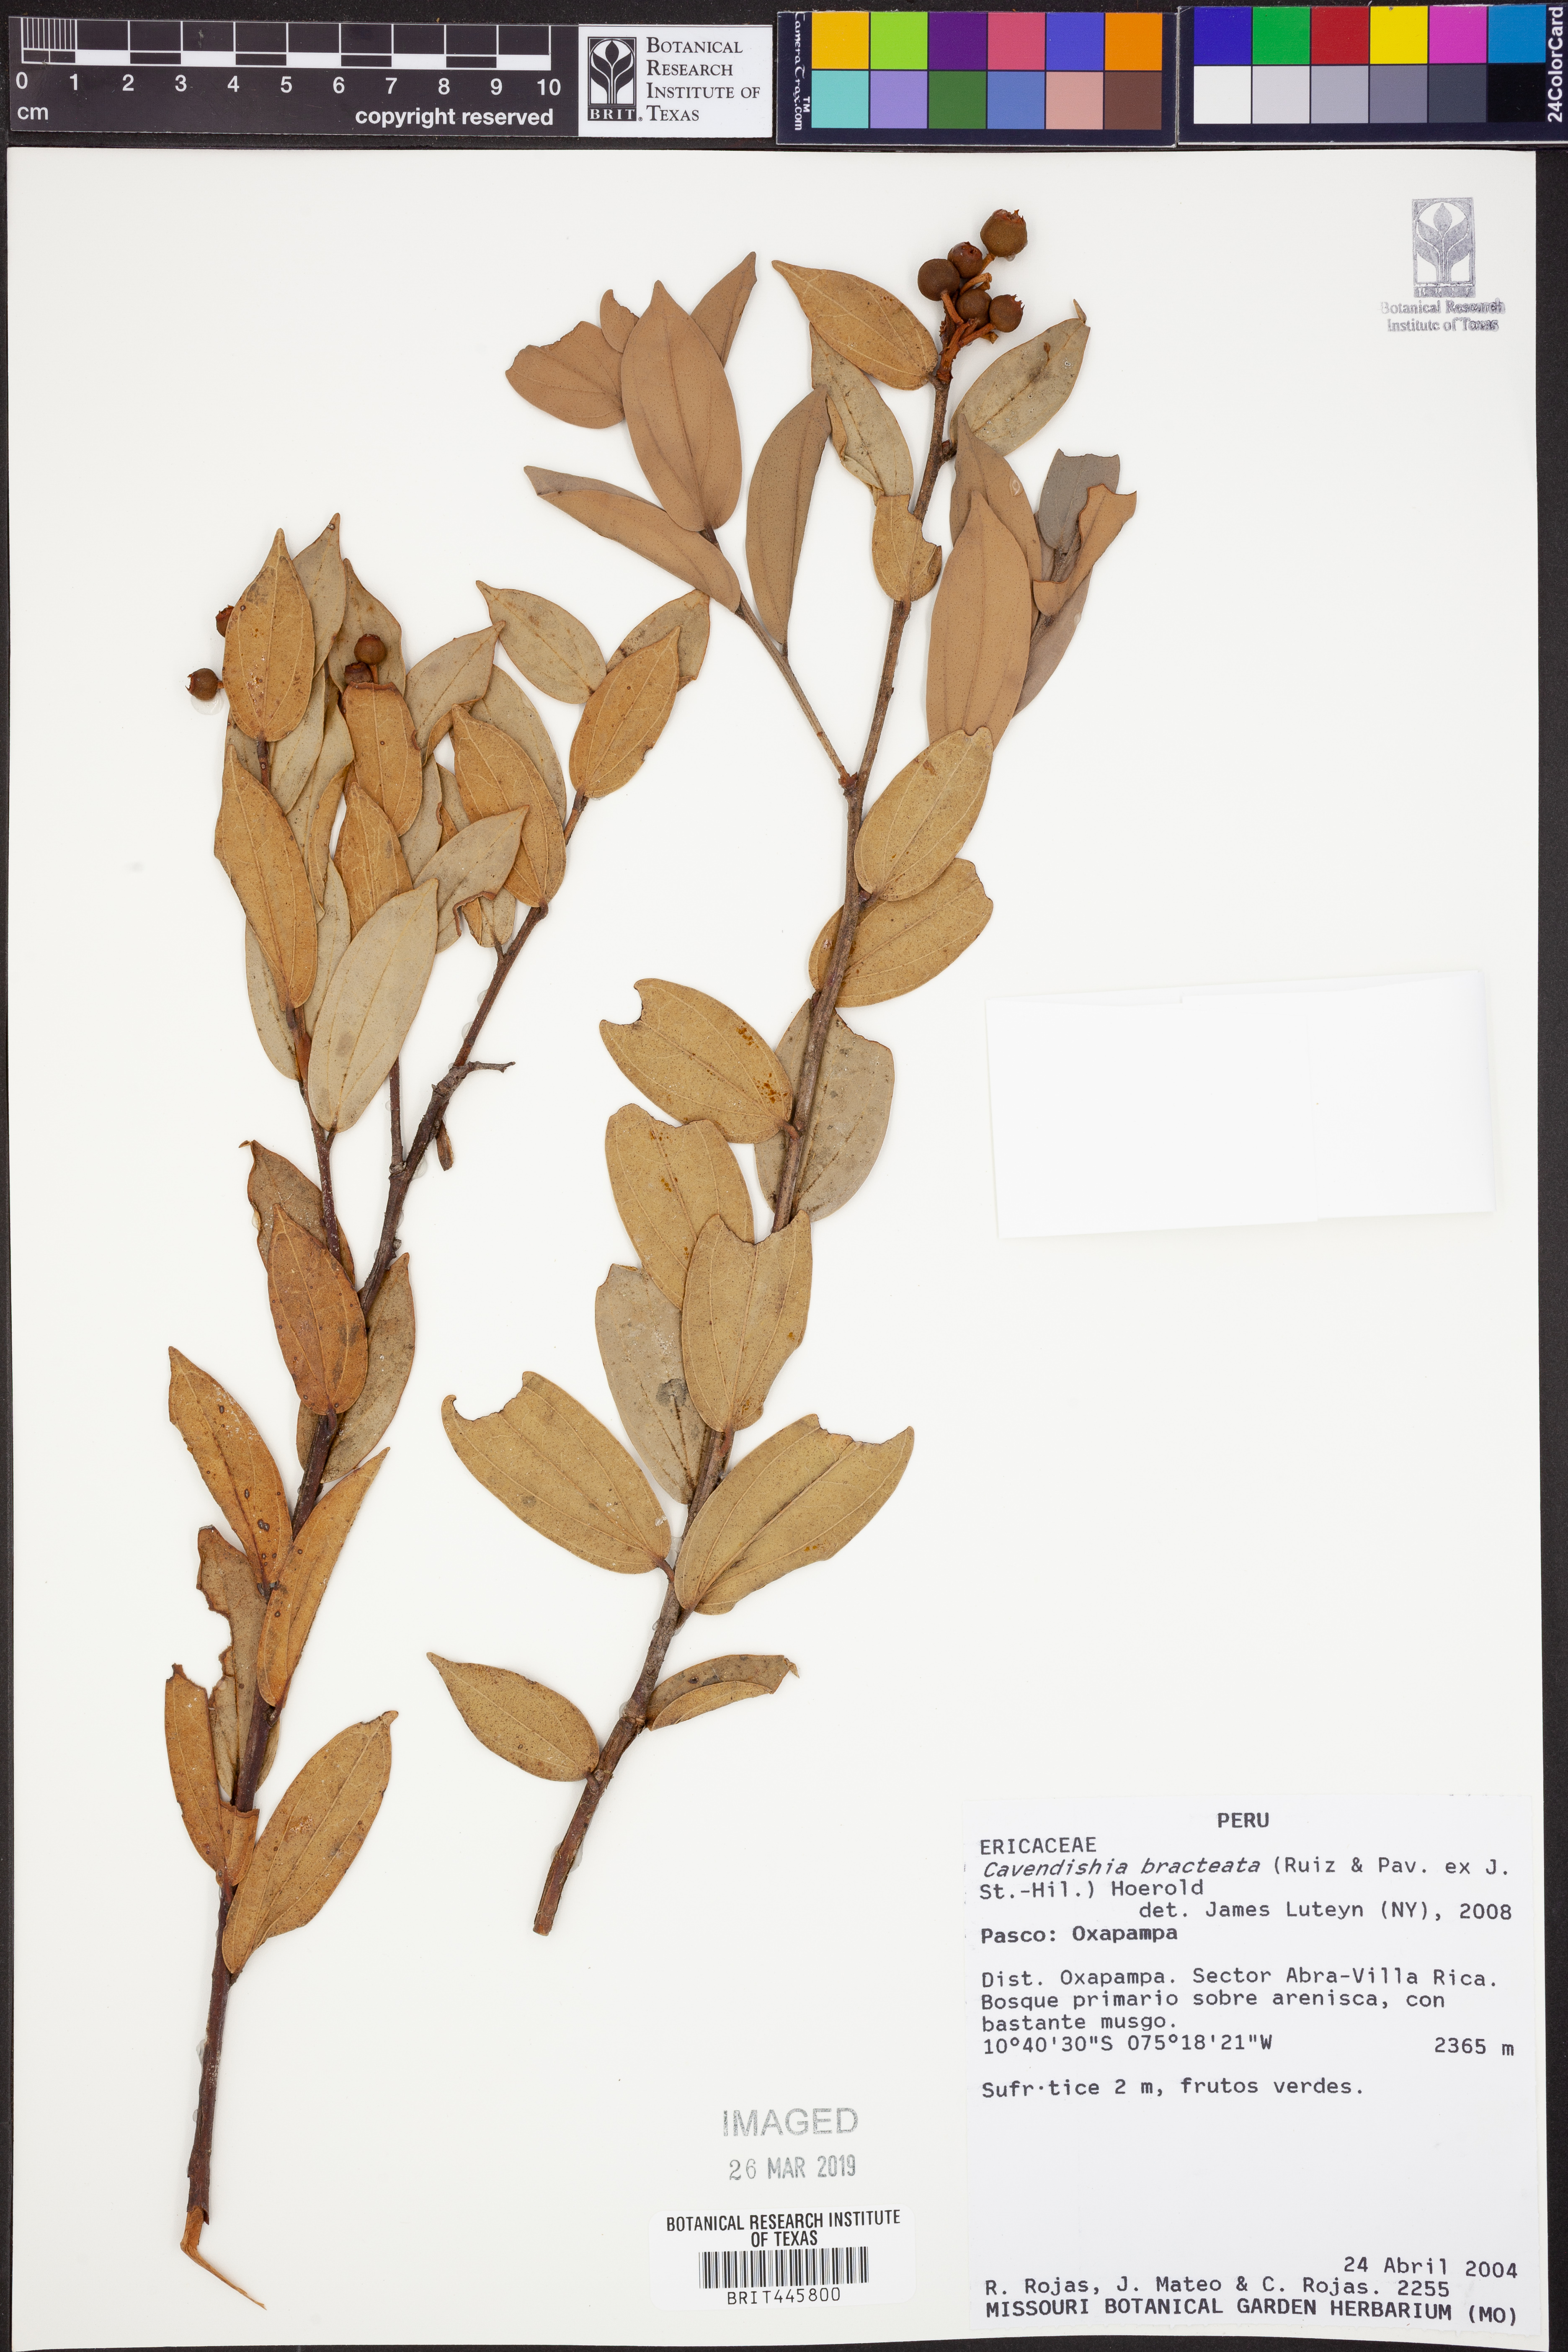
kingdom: Plantae
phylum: Tracheophyta
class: Magnoliopsida
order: Ericales
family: Ericaceae
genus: Cavendishia
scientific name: Cavendishia bracteata
